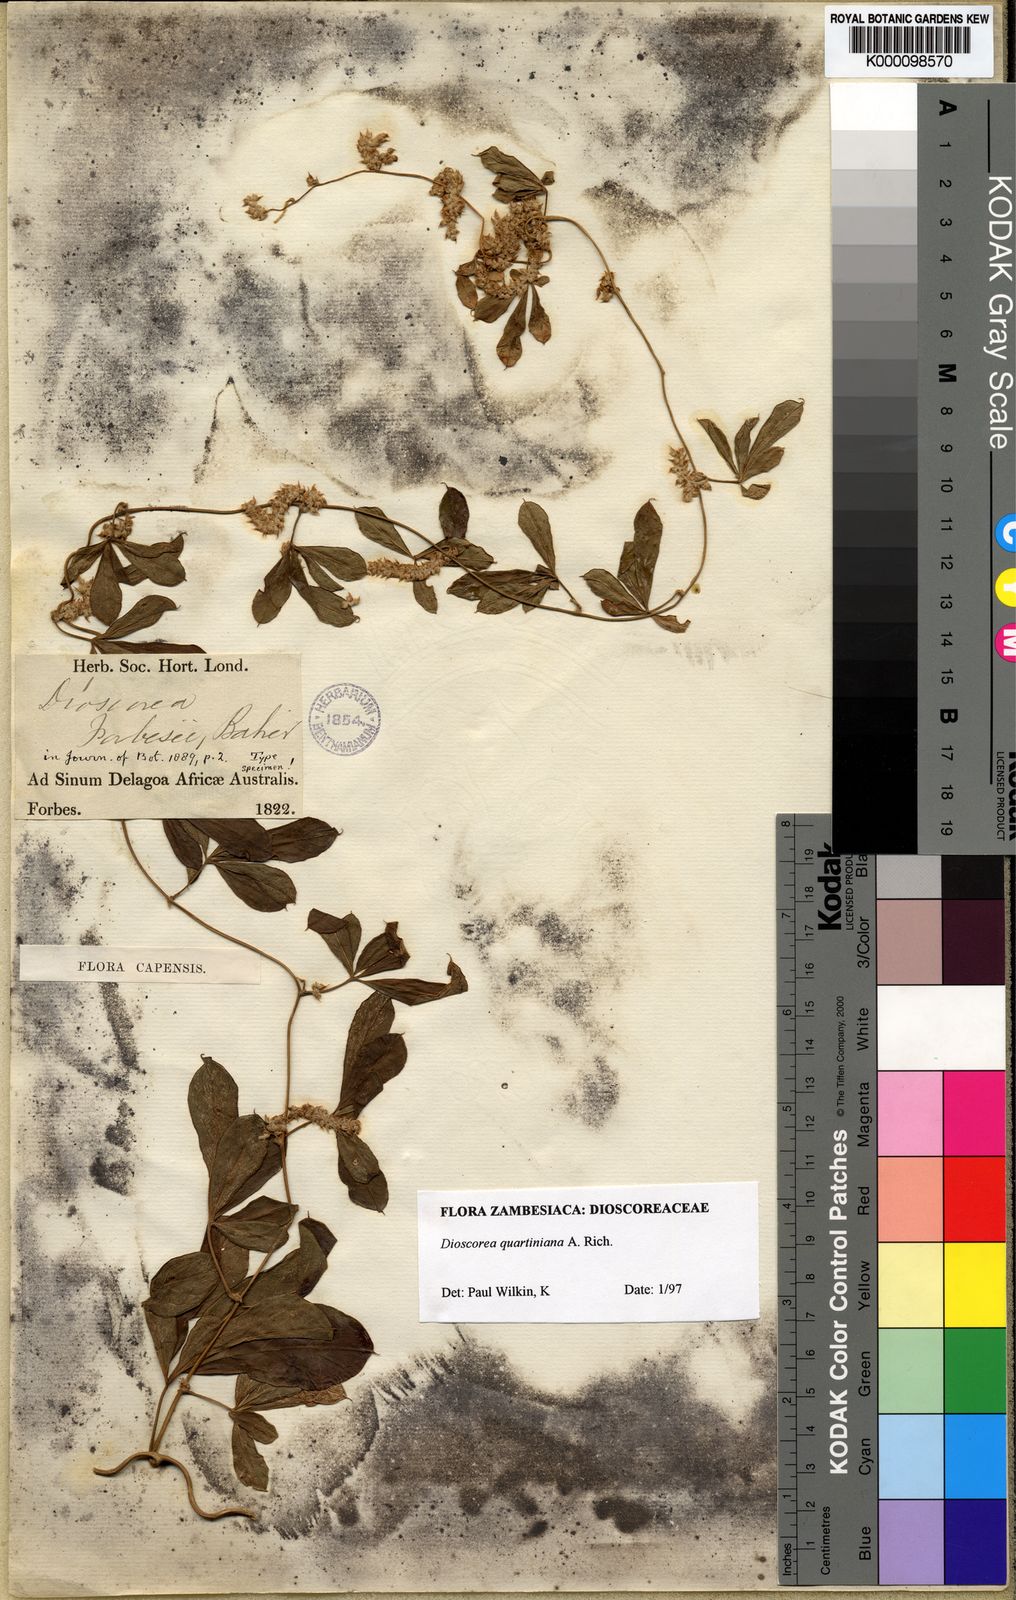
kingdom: Plantae
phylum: Tracheophyta
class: Liliopsida
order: Dioscoreales
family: Dioscoreaceae
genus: Dioscorea
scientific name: Dioscorea quartiniana
